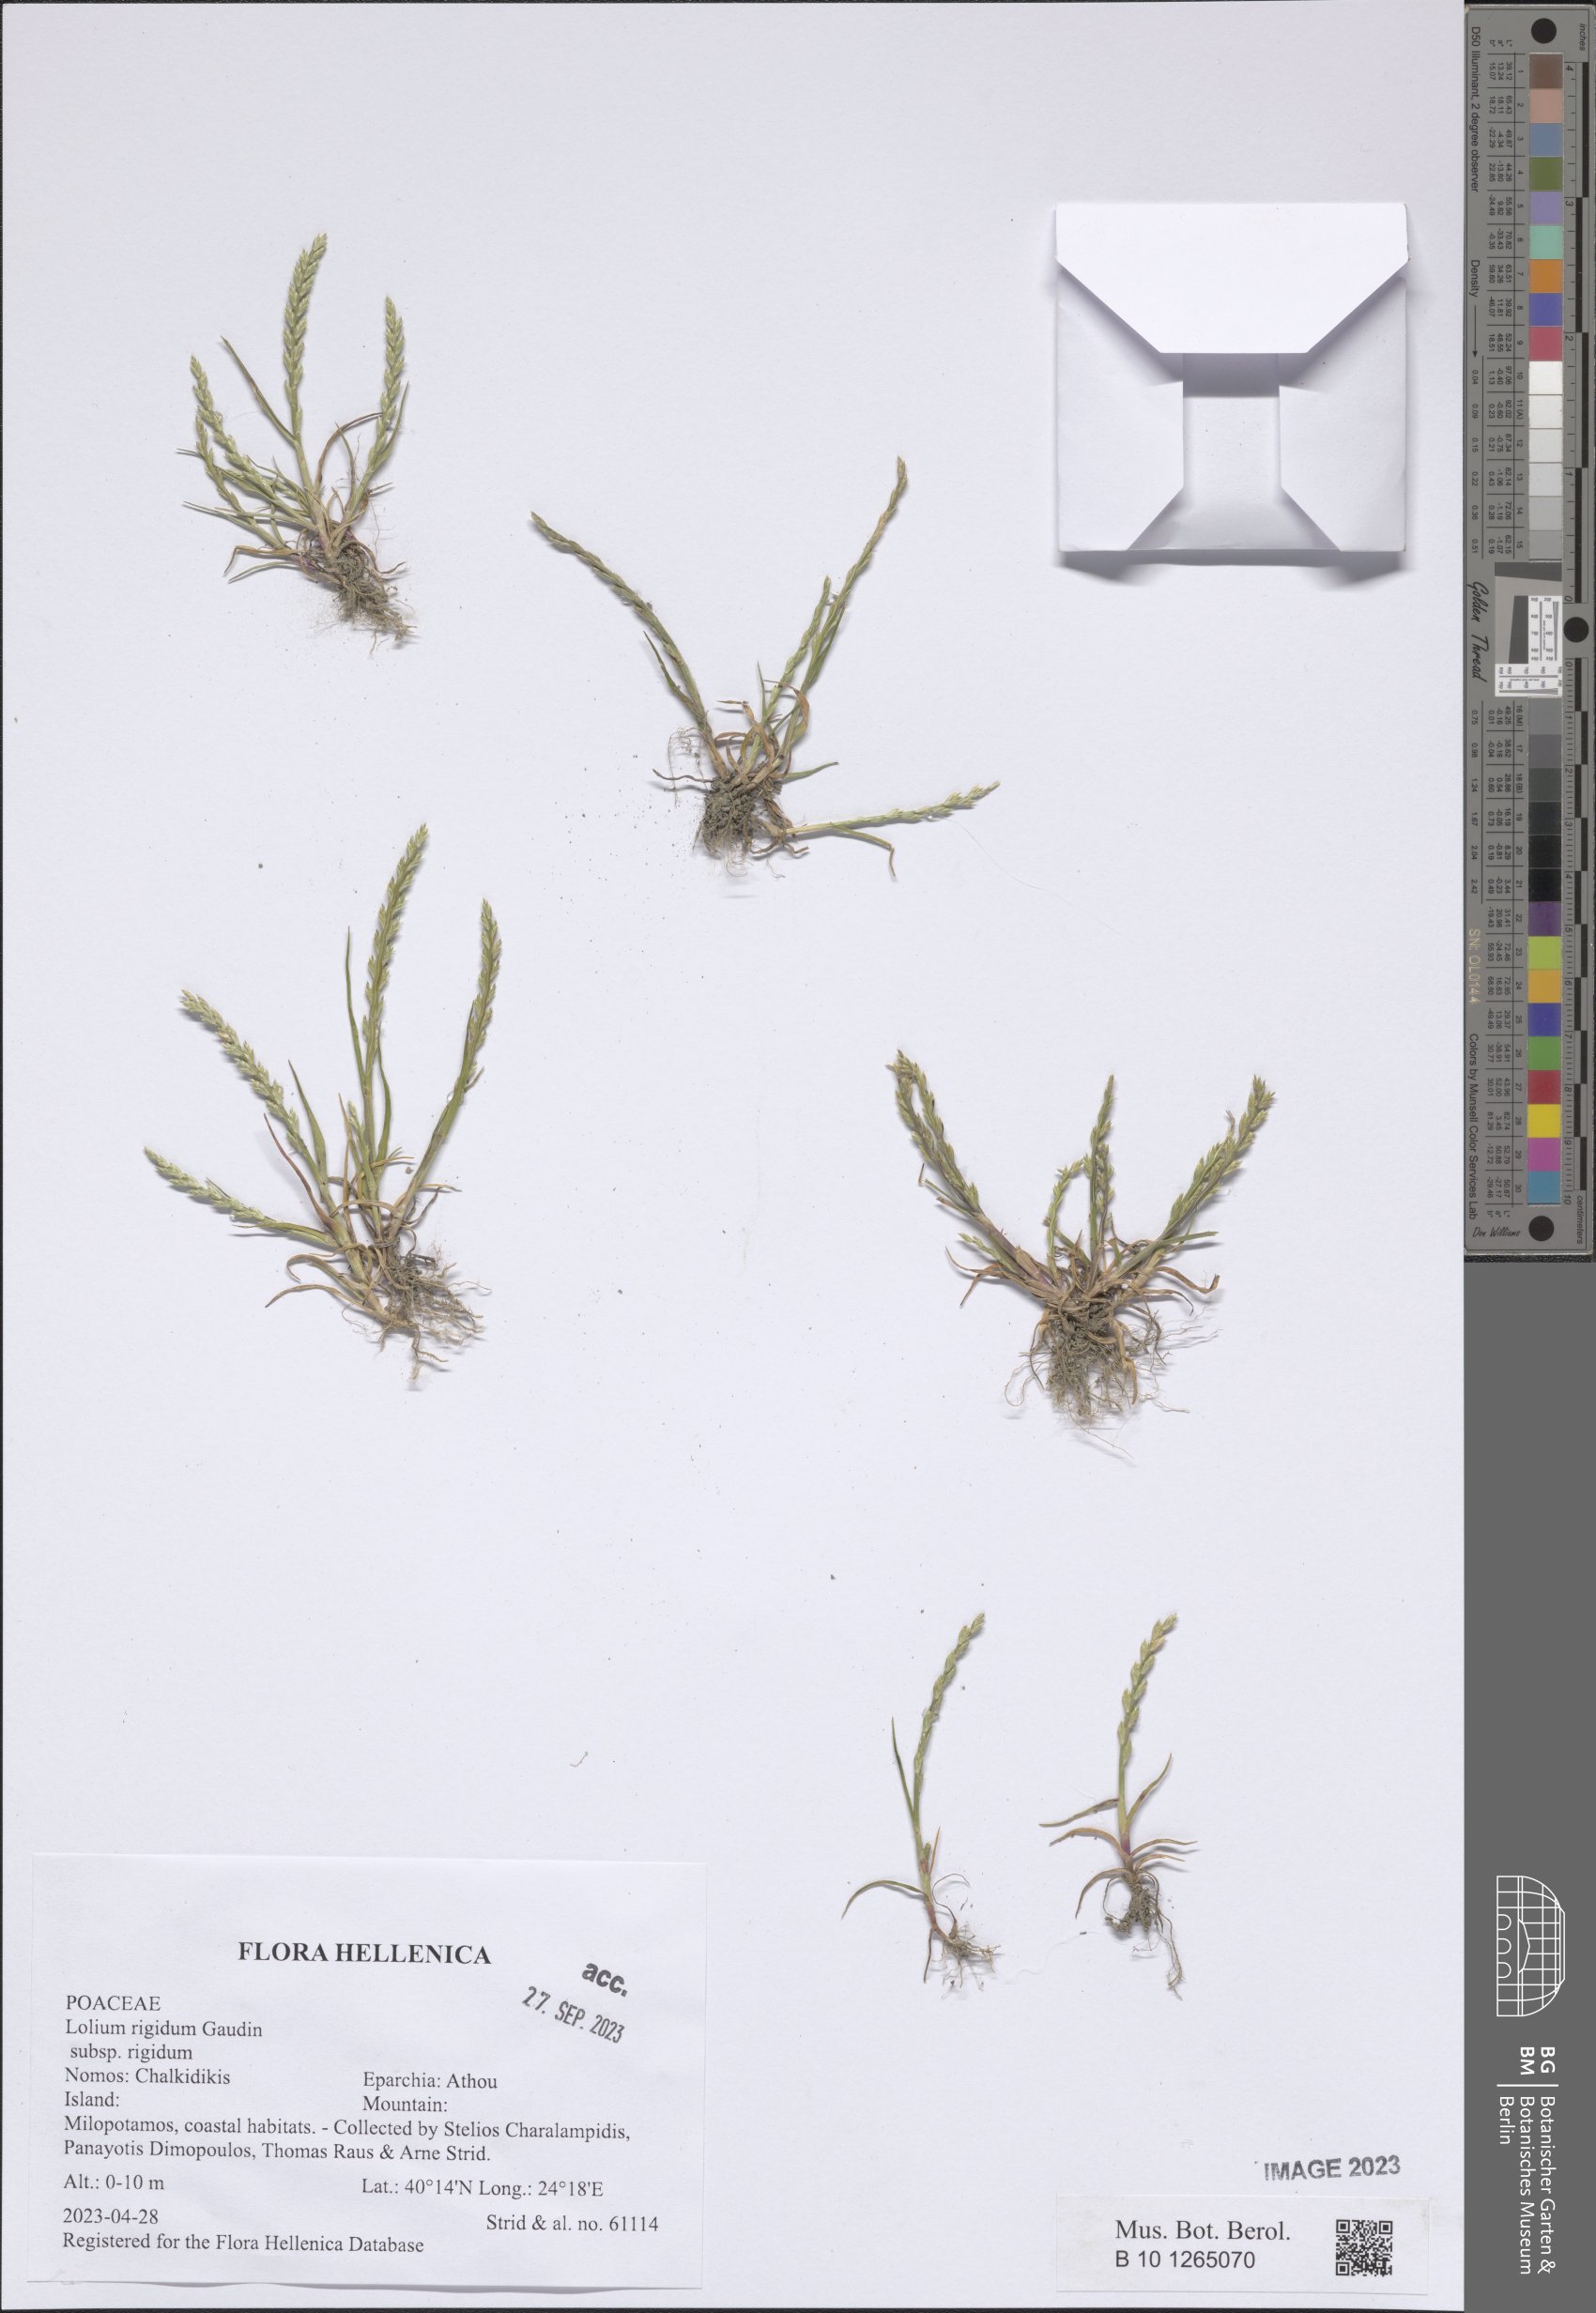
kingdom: Plantae
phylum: Tracheophyta
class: Liliopsida
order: Poales
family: Poaceae
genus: Lolium
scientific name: Lolium rigidum
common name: Wimmera ryegrass
